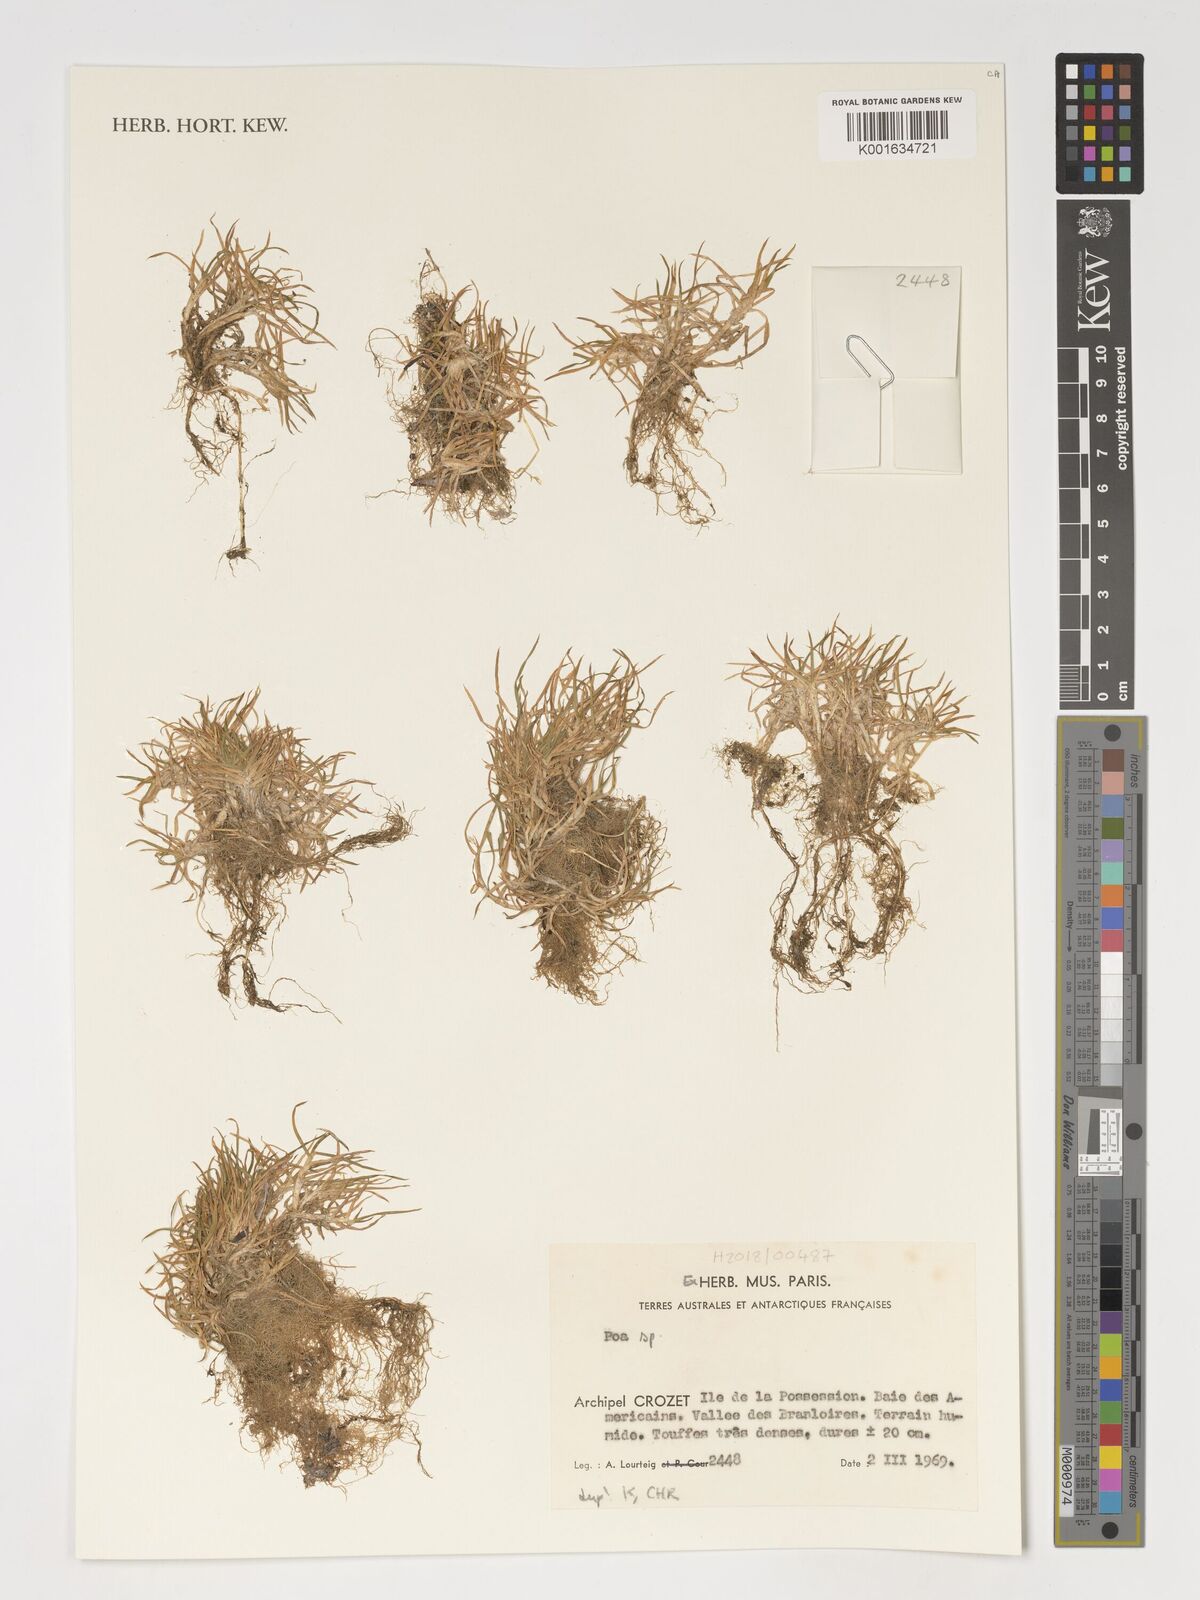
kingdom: Plantae
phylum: Tracheophyta
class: Liliopsida
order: Poales
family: Poaceae
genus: Poa
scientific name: Poa
